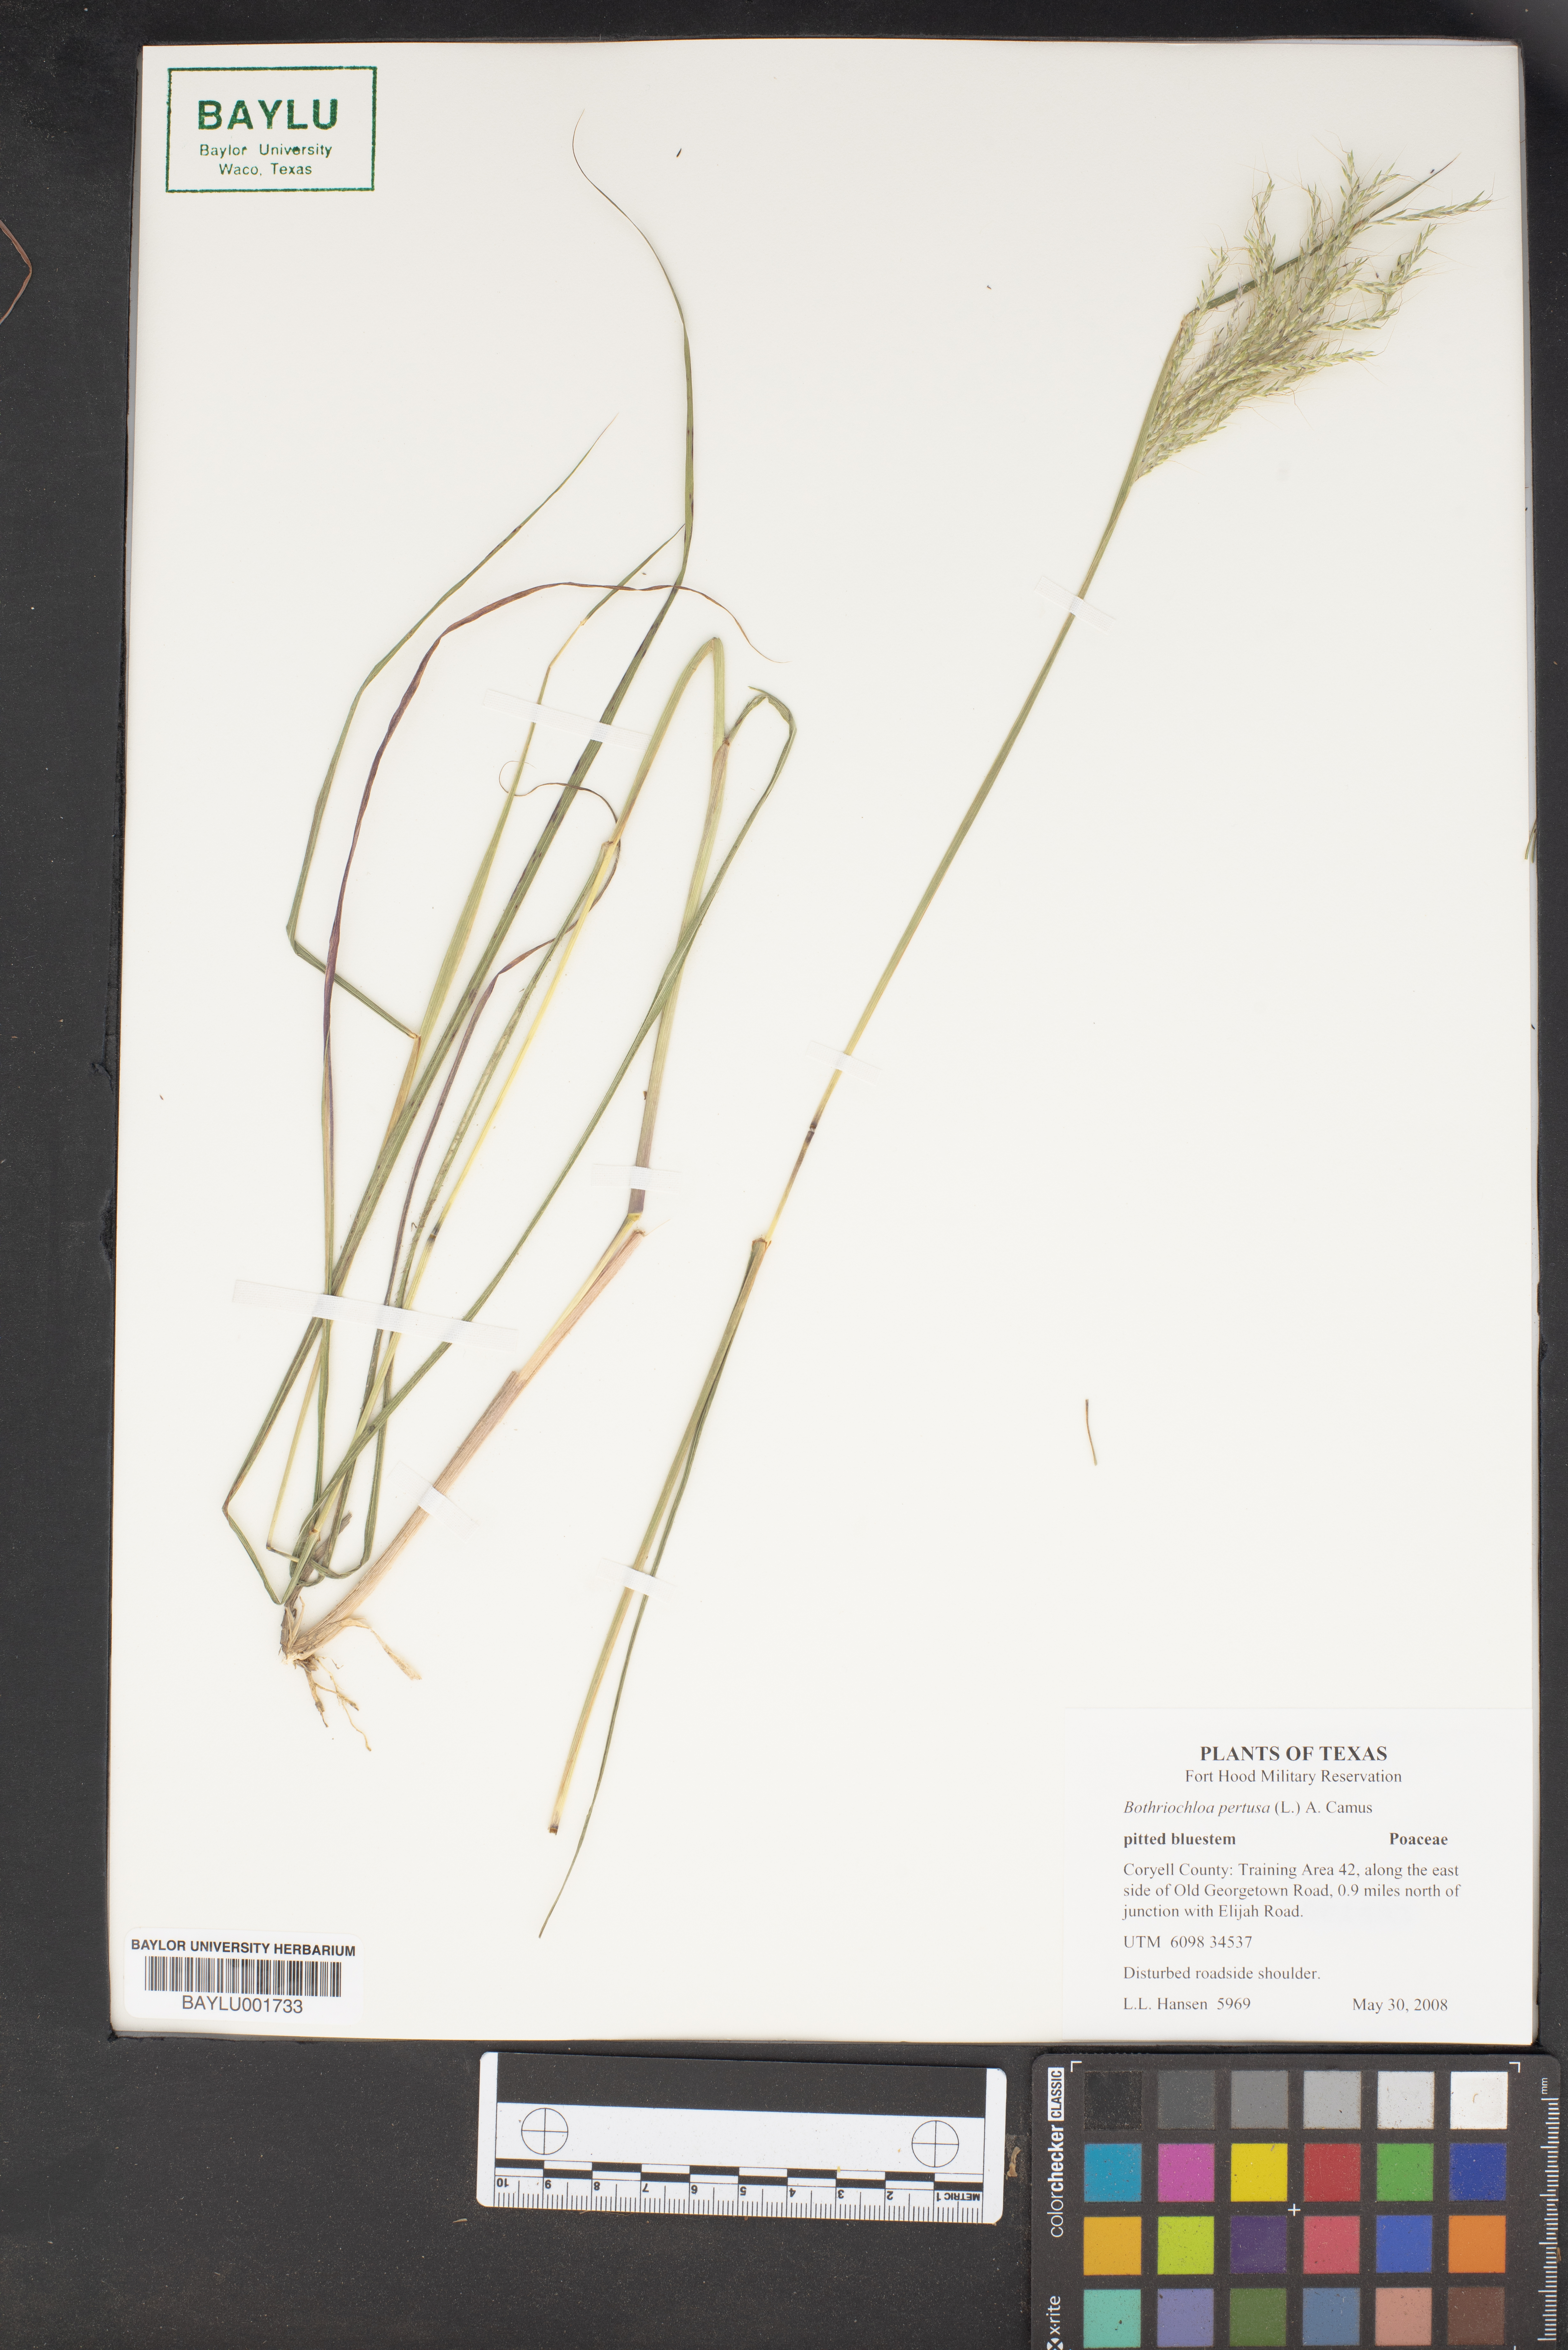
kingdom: Plantae
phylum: Tracheophyta
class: Liliopsida
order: Poales
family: Poaceae
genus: Bothriochloa
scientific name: Bothriochloa pertusa
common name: Pitted beardgrass
